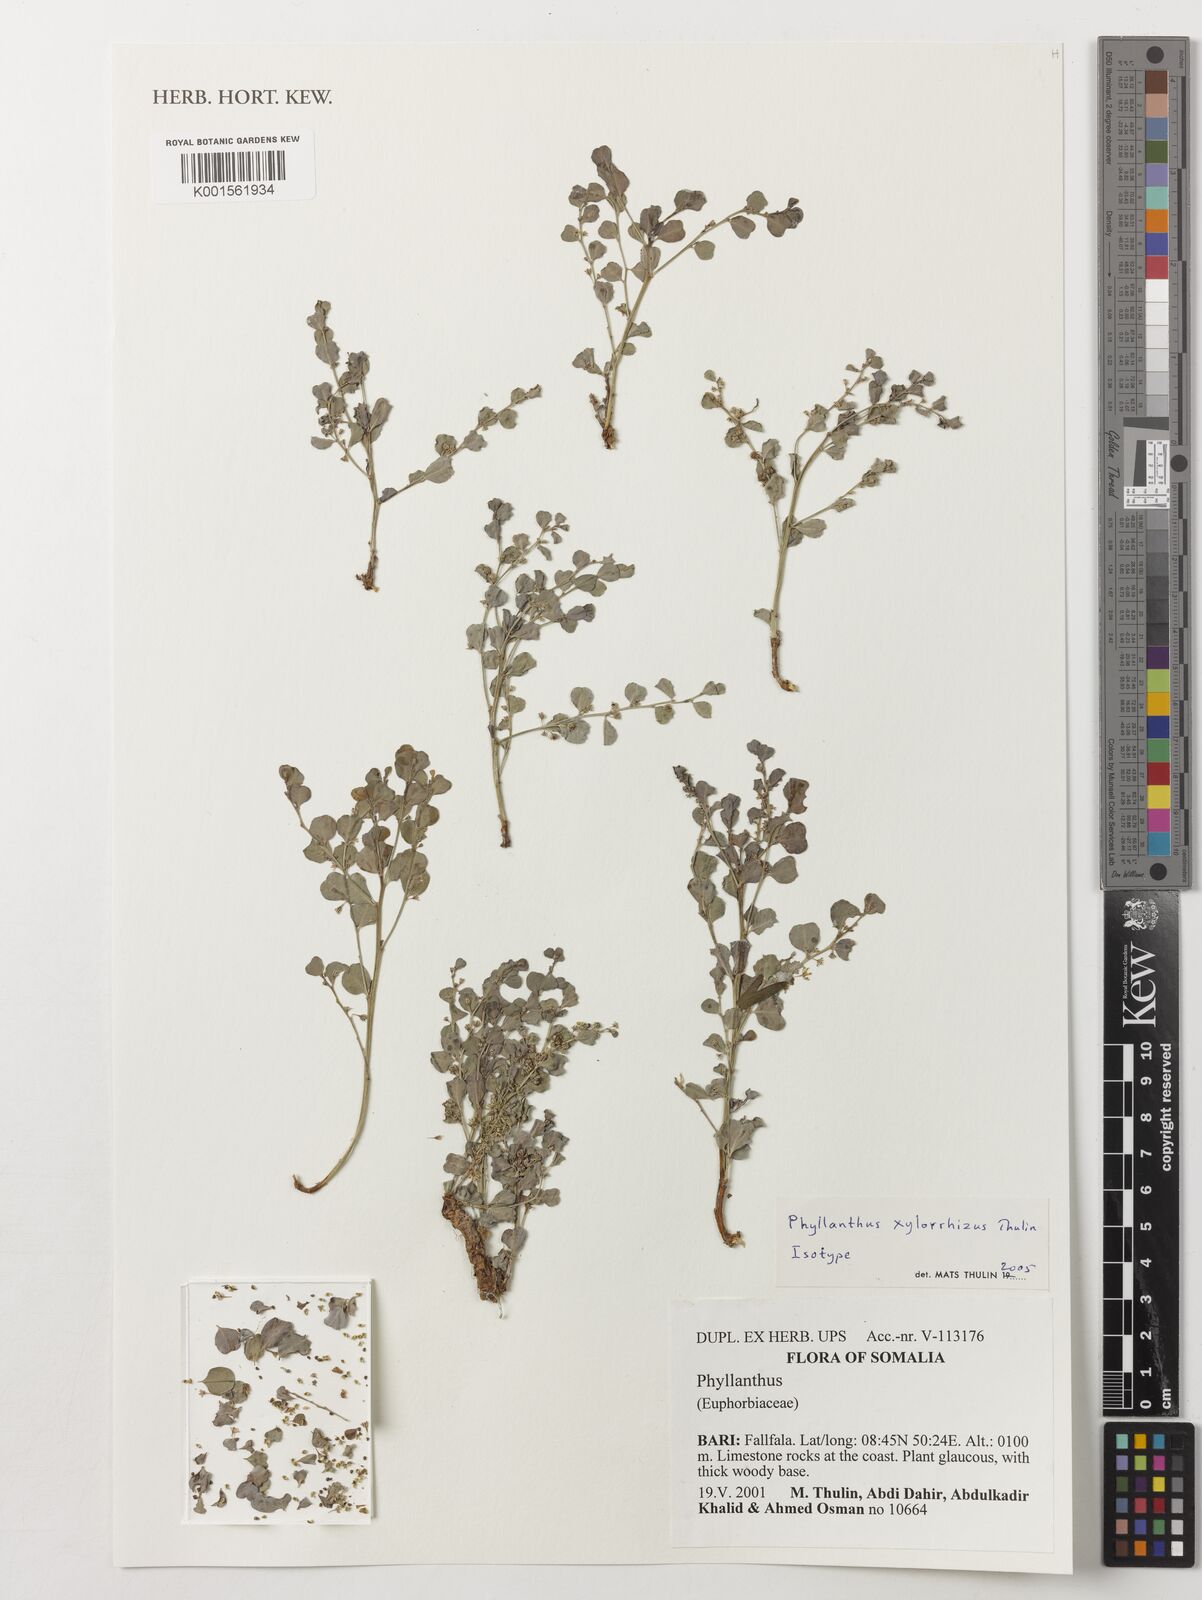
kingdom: Plantae
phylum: Tracheophyta
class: Magnoliopsida
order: Malpighiales
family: Phyllanthaceae
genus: Phyllanthus
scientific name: Phyllanthus xylorrhizus
